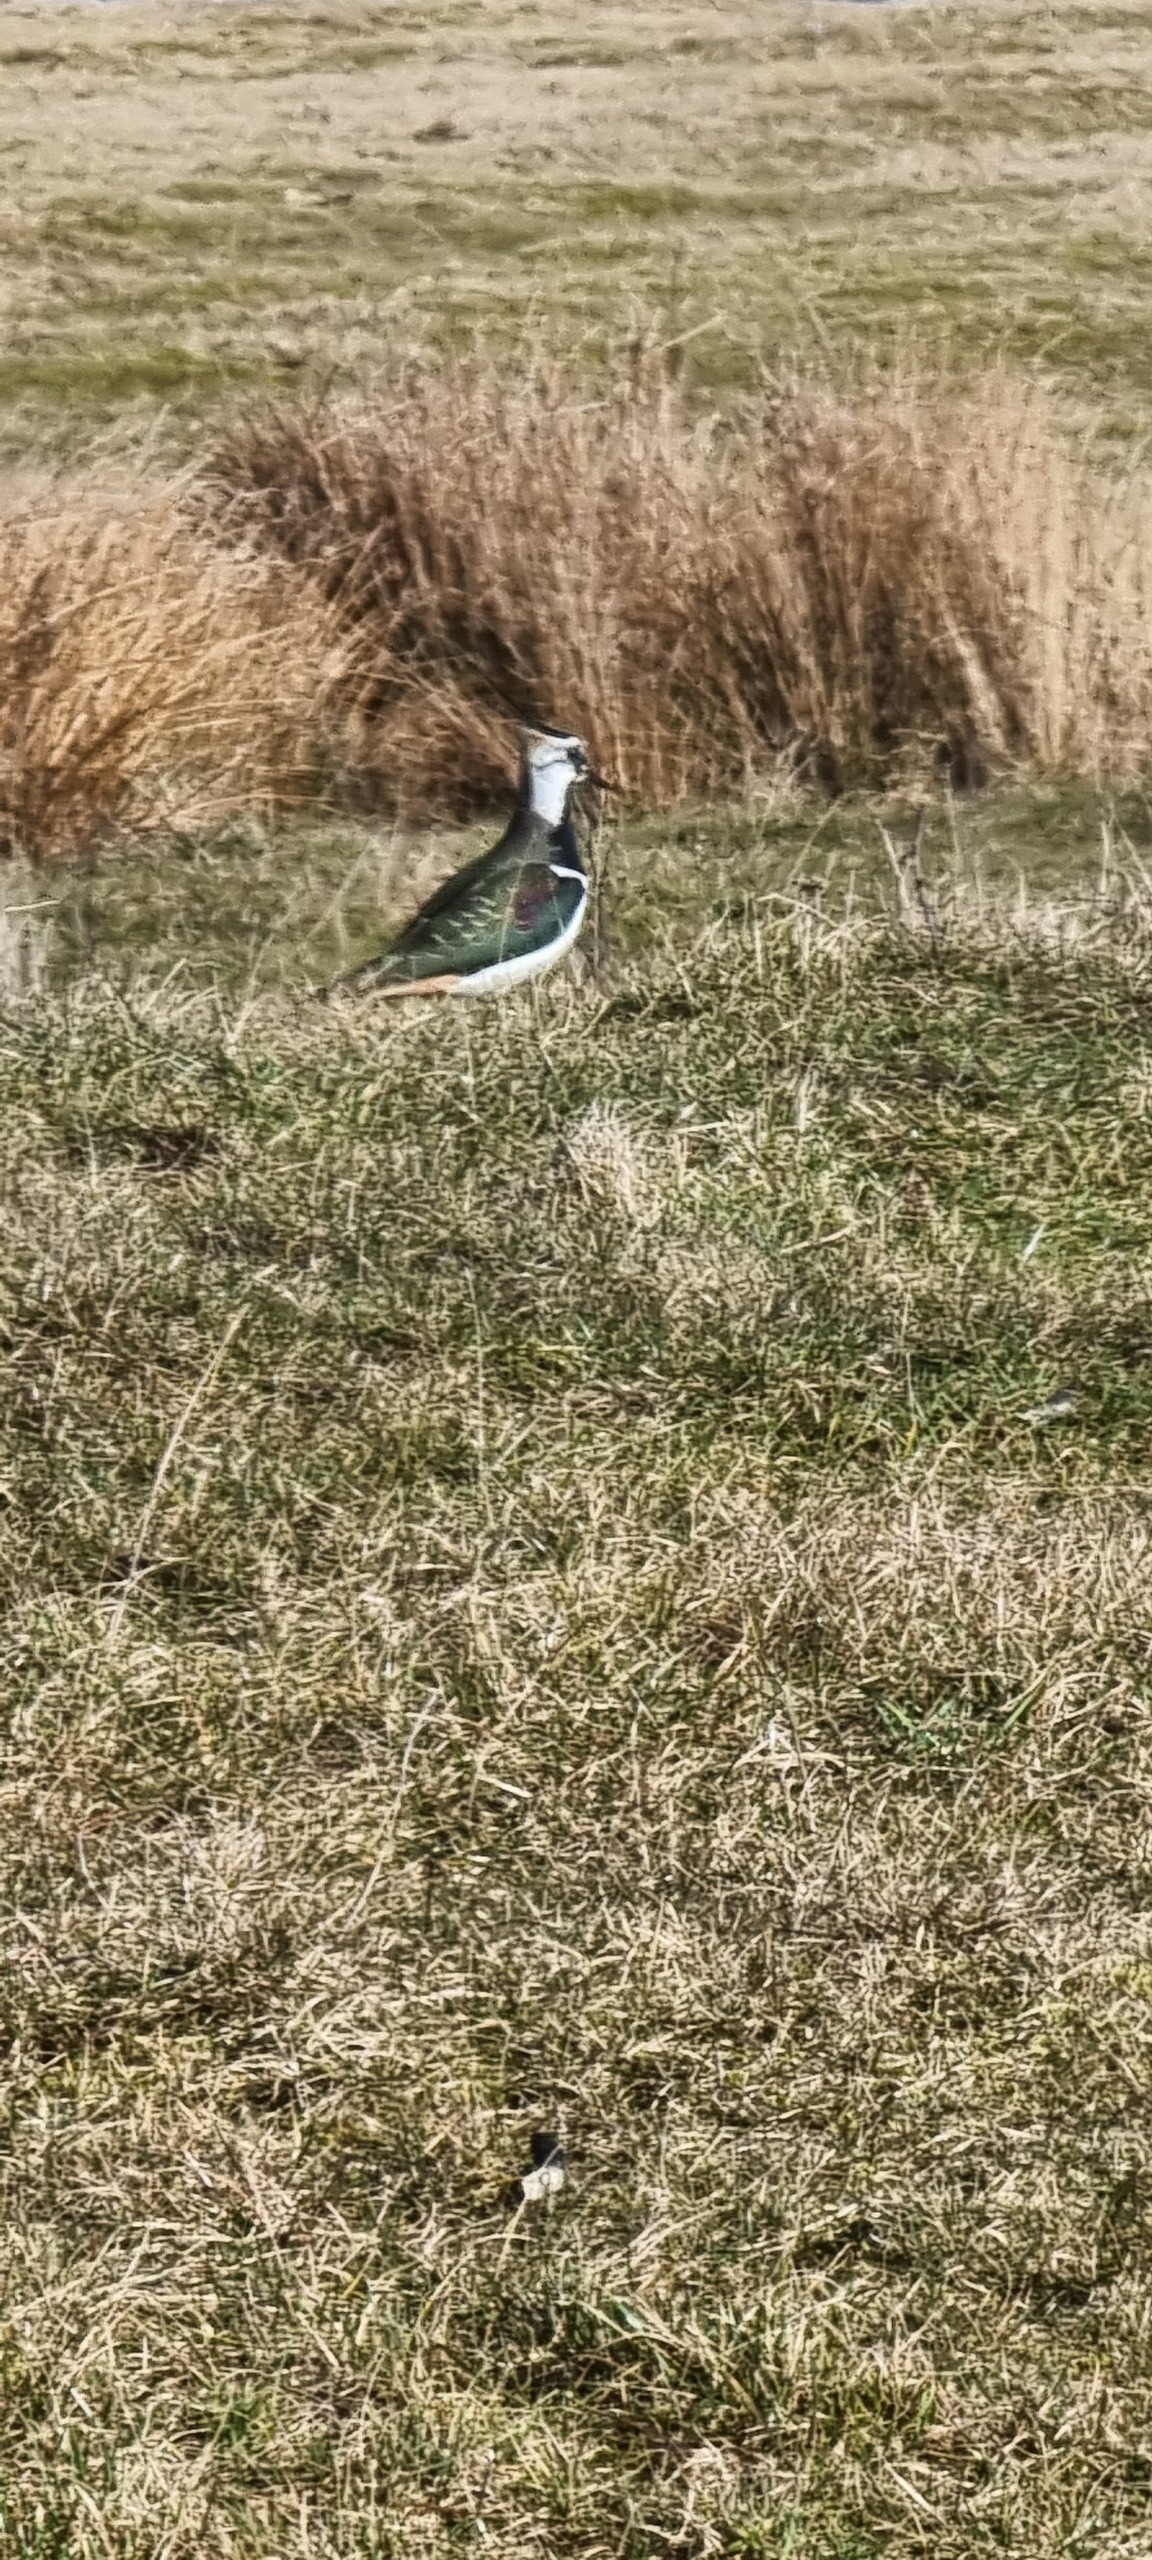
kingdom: Animalia
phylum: Chordata
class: Aves
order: Charadriiformes
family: Charadriidae
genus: Vanellus
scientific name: Vanellus vanellus
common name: Vibe
